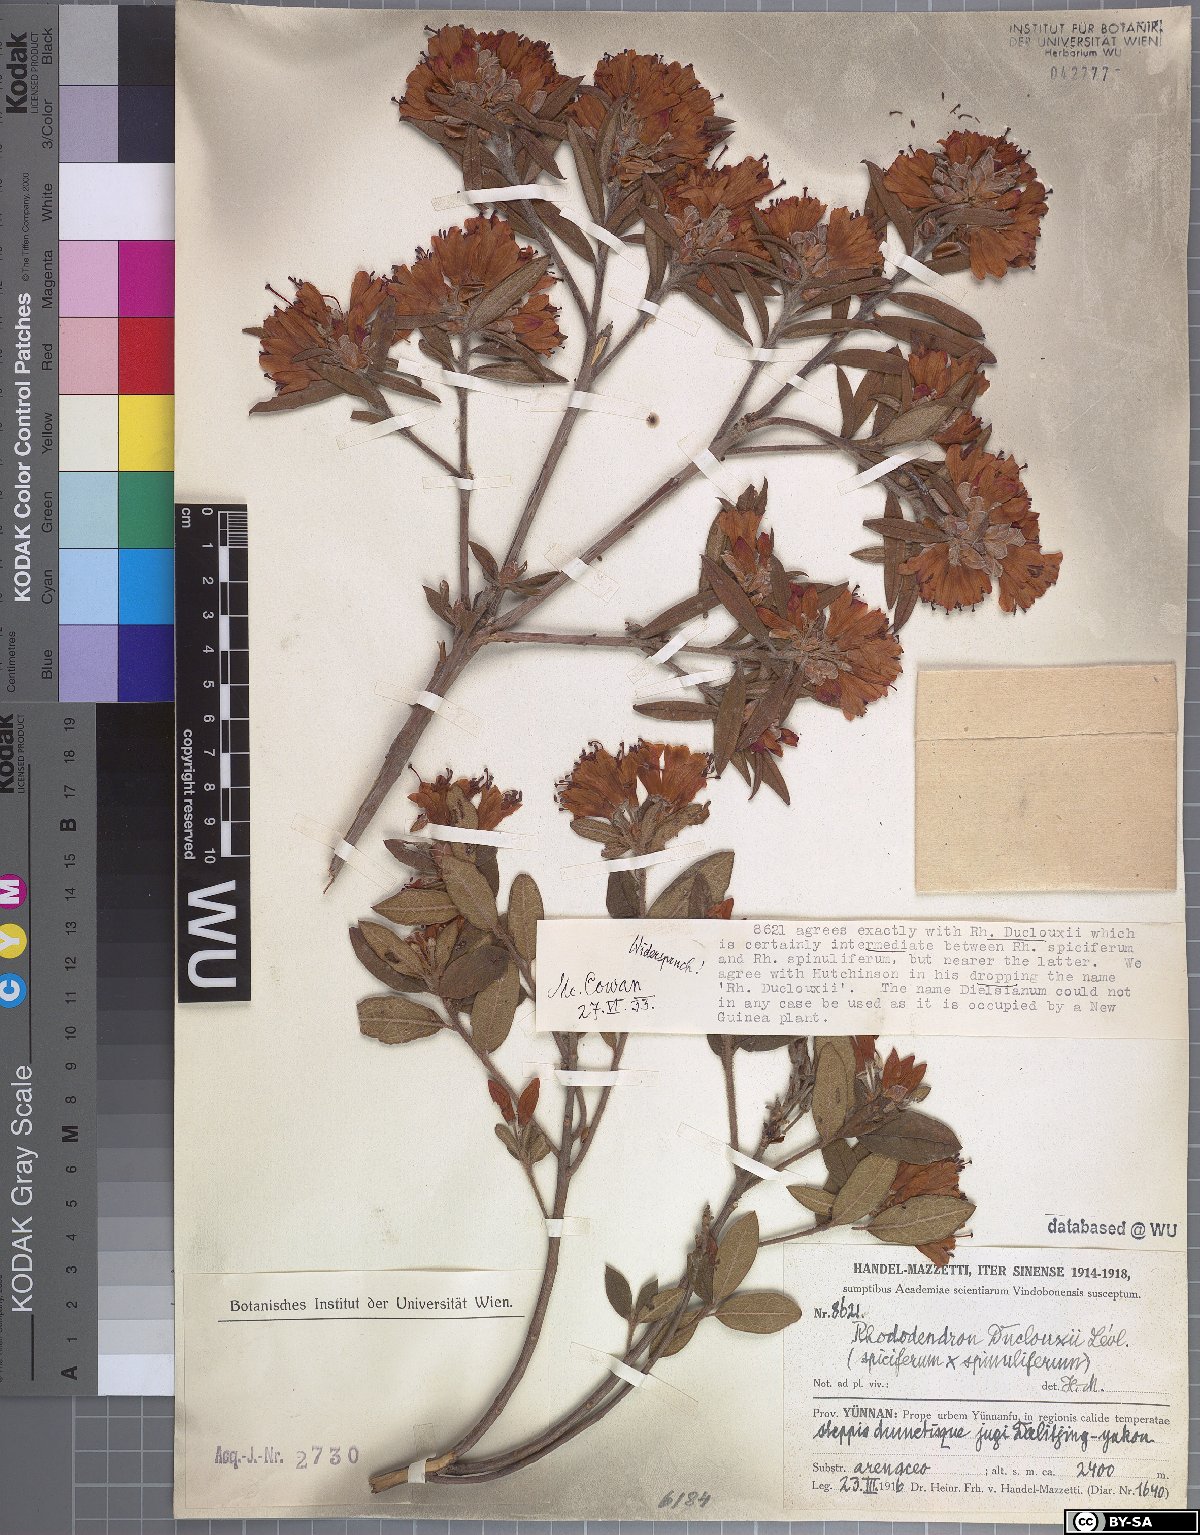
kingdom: Plantae
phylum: Tracheophyta
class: Magnoliopsida
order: Ericales
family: Ericaceae
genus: Rhododendron
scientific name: Rhododendron duclouxii
